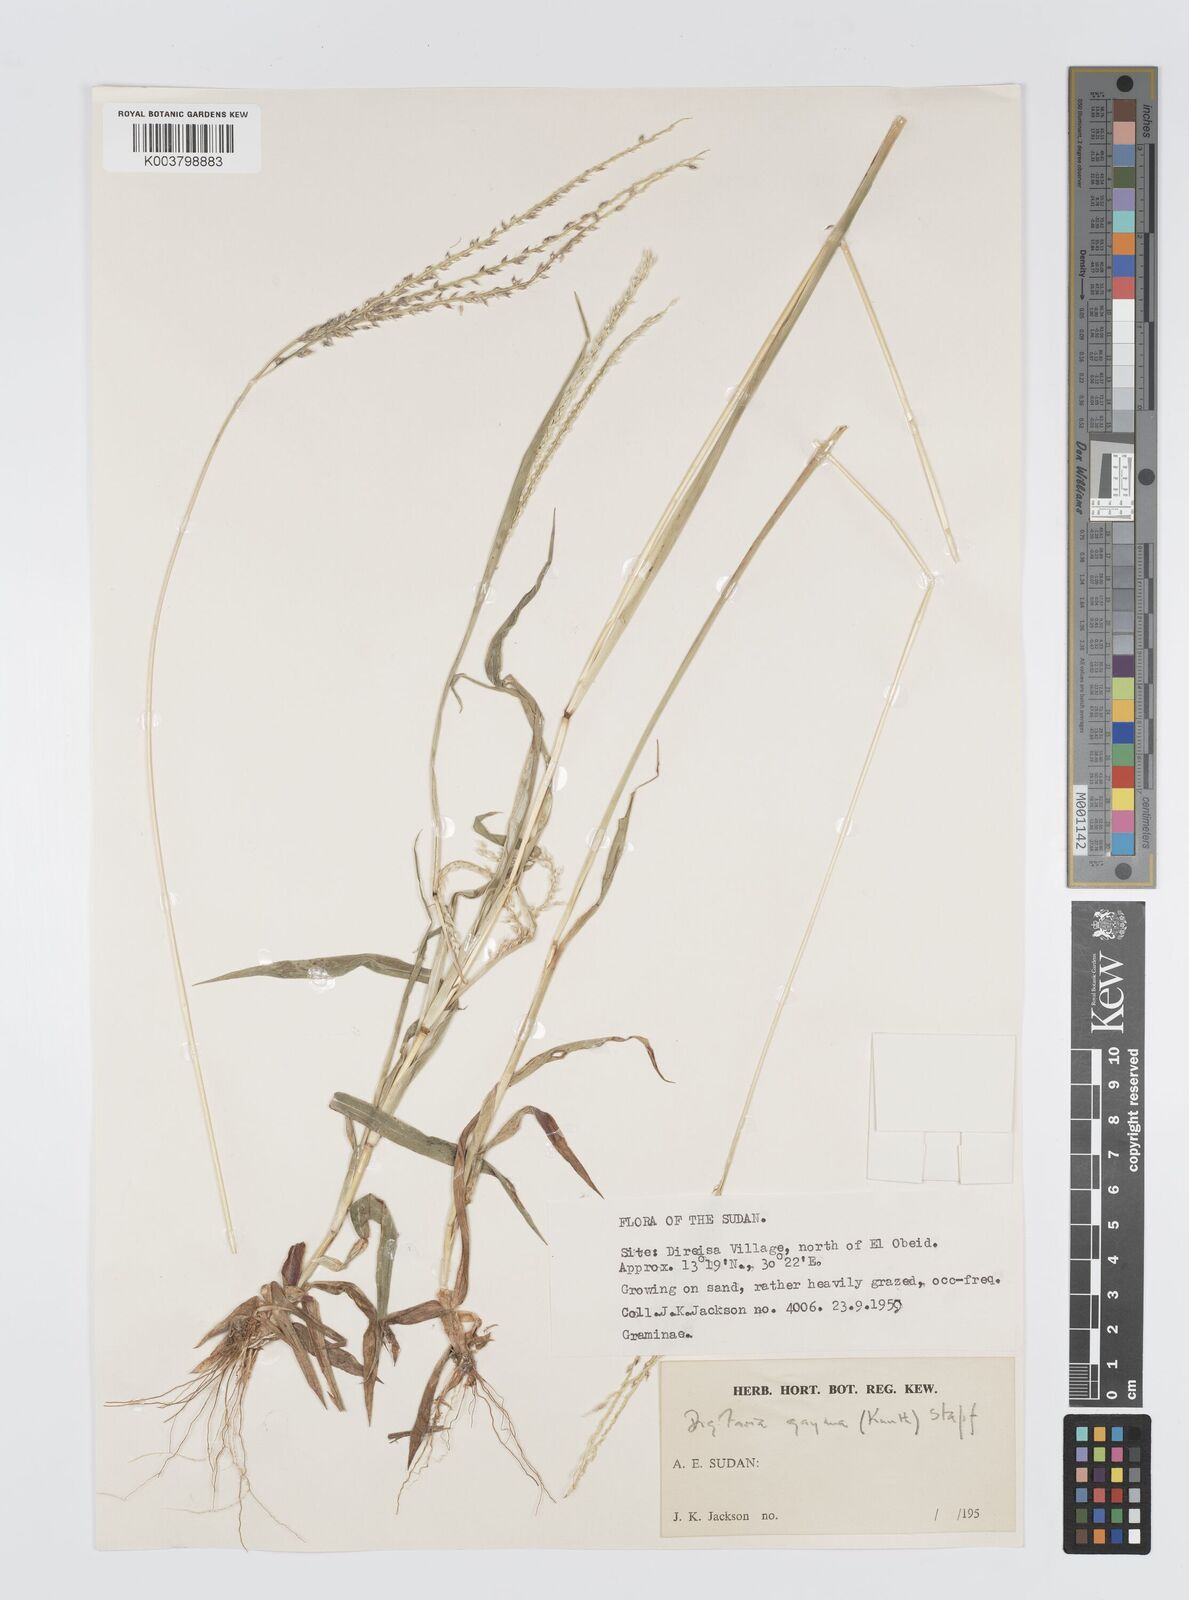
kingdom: Plantae
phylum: Tracheophyta
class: Liliopsida
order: Poales
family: Poaceae
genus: Digitaria
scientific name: Digitaria gayana
